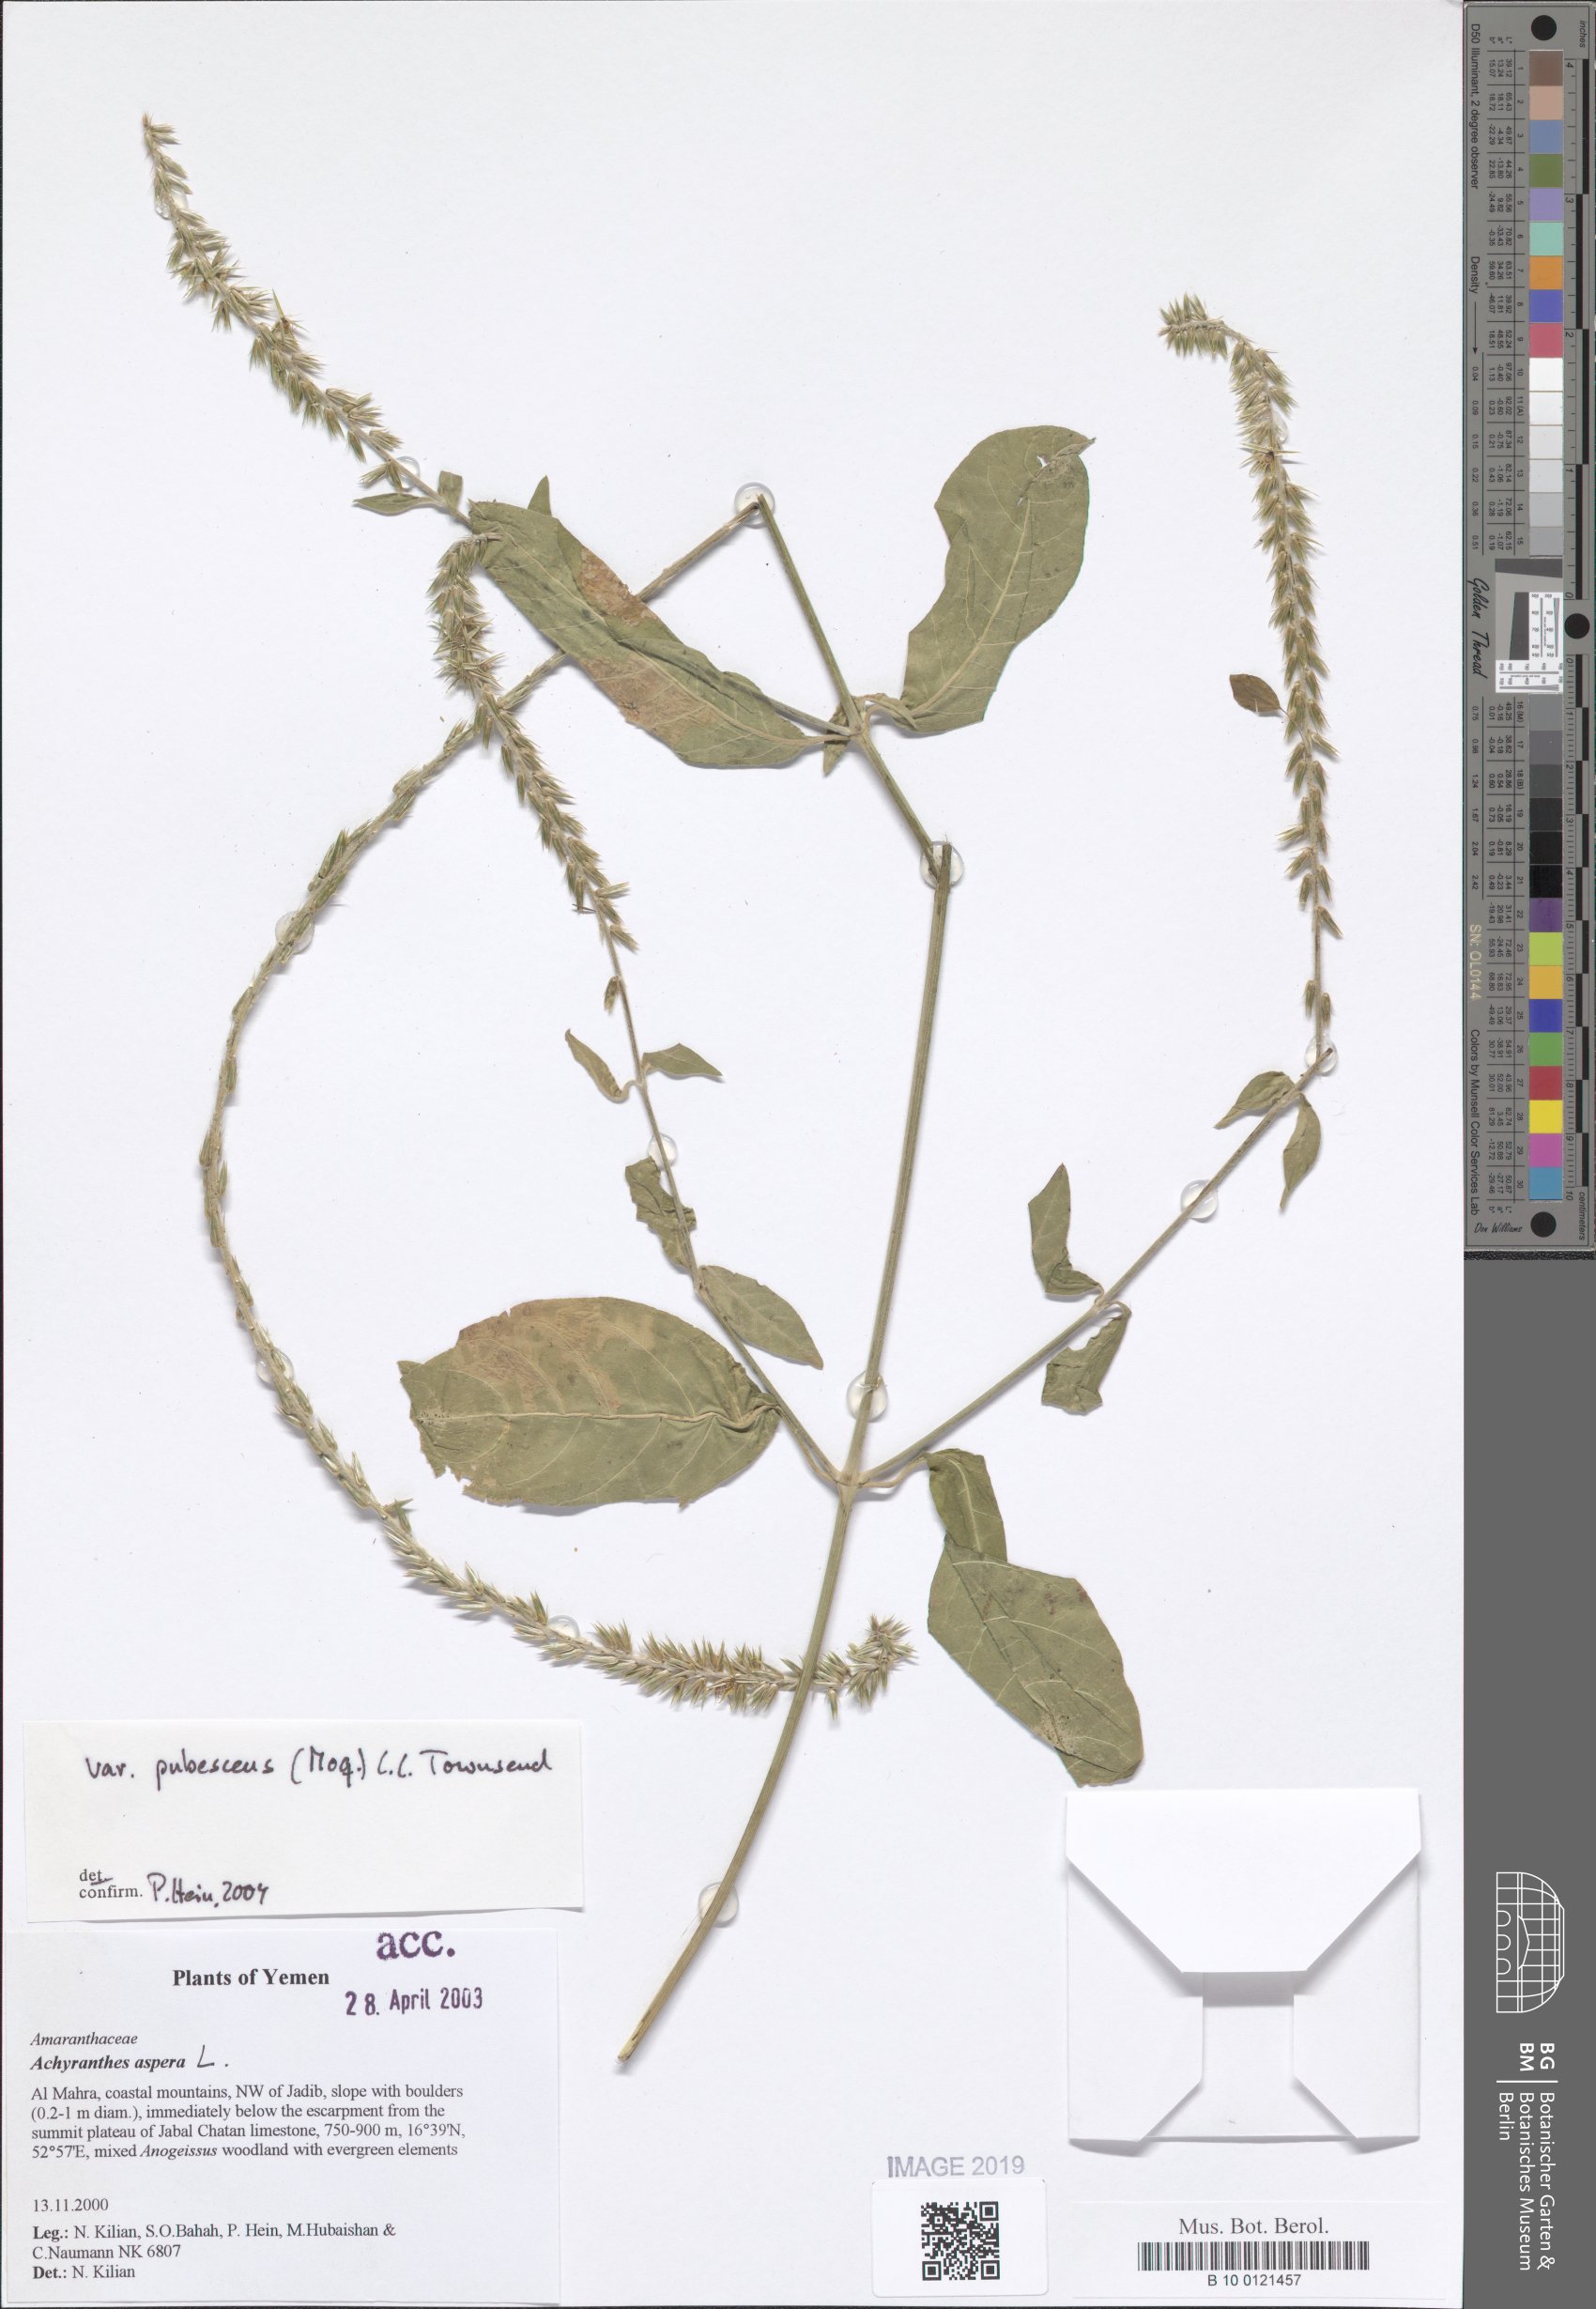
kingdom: Plantae
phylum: Tracheophyta
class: Magnoliopsida
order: Caryophyllales
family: Amaranthaceae
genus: Achyranthes
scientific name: Achyranthes aspera
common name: Devil's horsewhip
